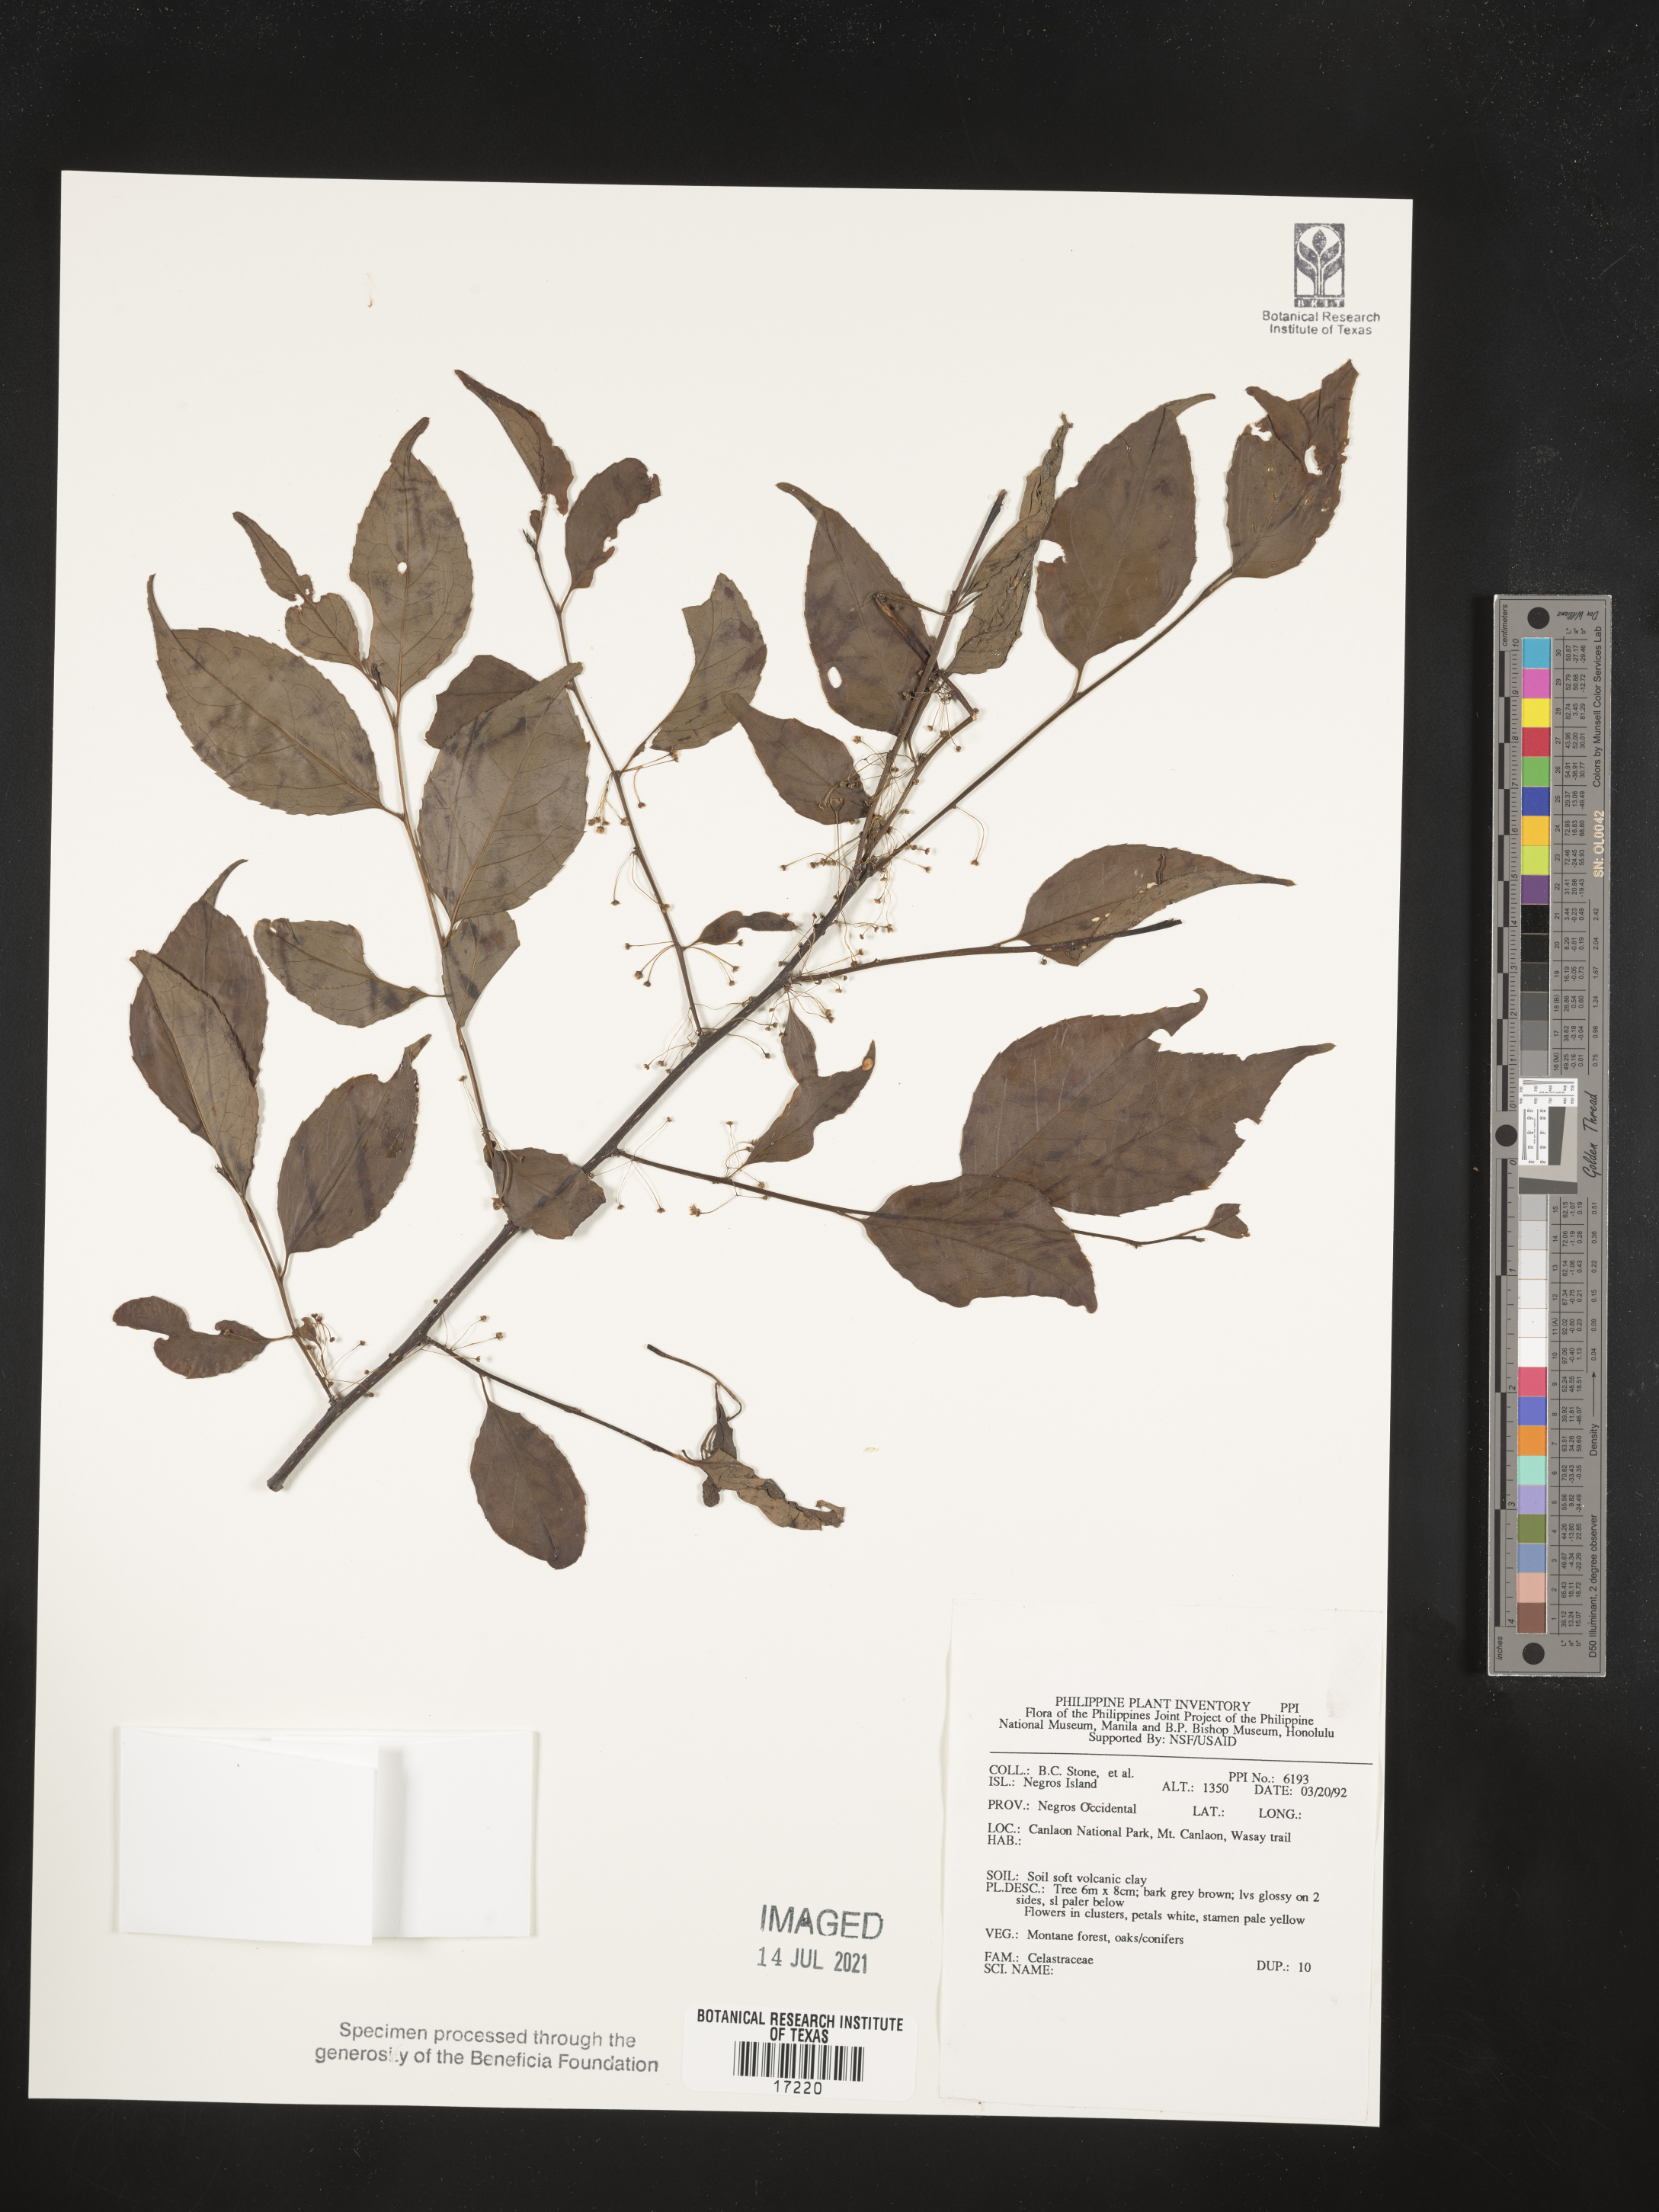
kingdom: Plantae
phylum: Tracheophyta
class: Magnoliopsida
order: Celastrales
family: Celastraceae
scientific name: Celastraceae
